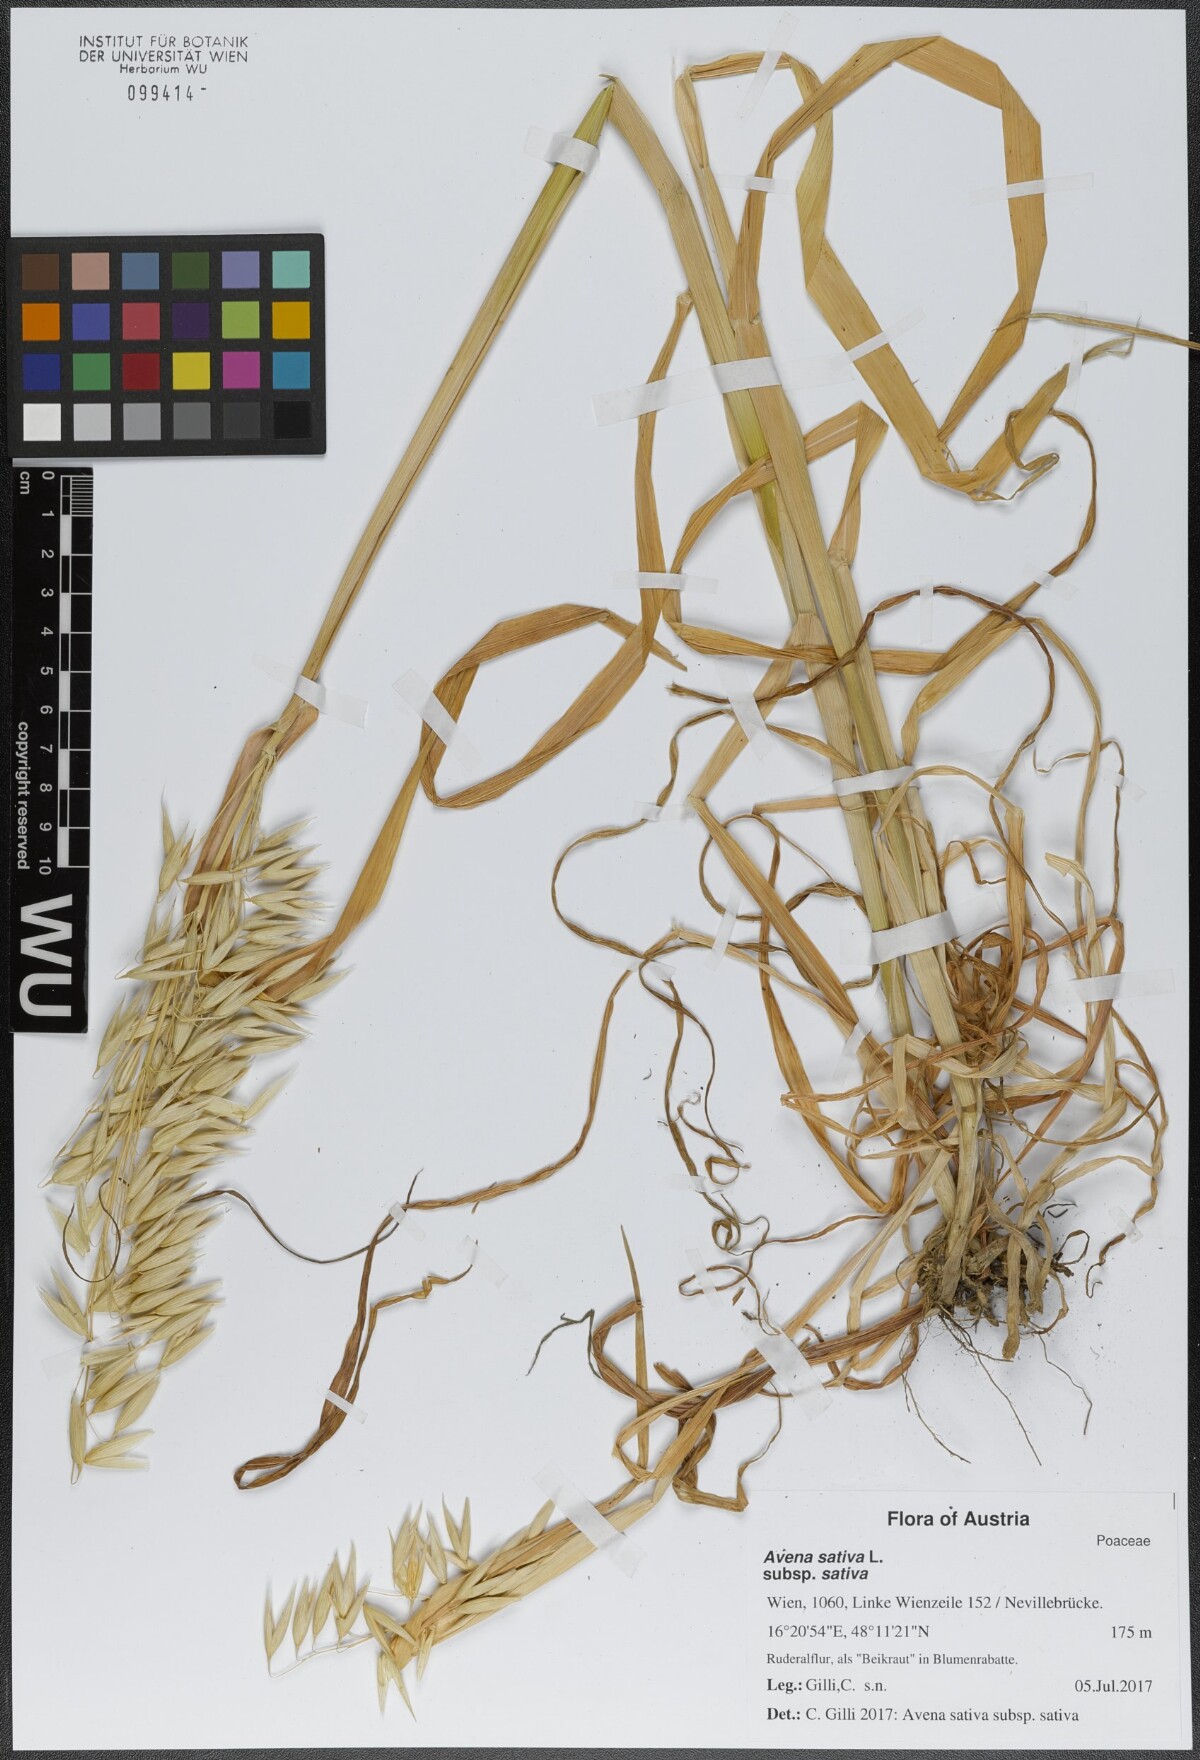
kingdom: Plantae
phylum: Tracheophyta
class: Liliopsida
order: Poales
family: Poaceae
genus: Avena
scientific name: Avena sativa
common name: Oat
